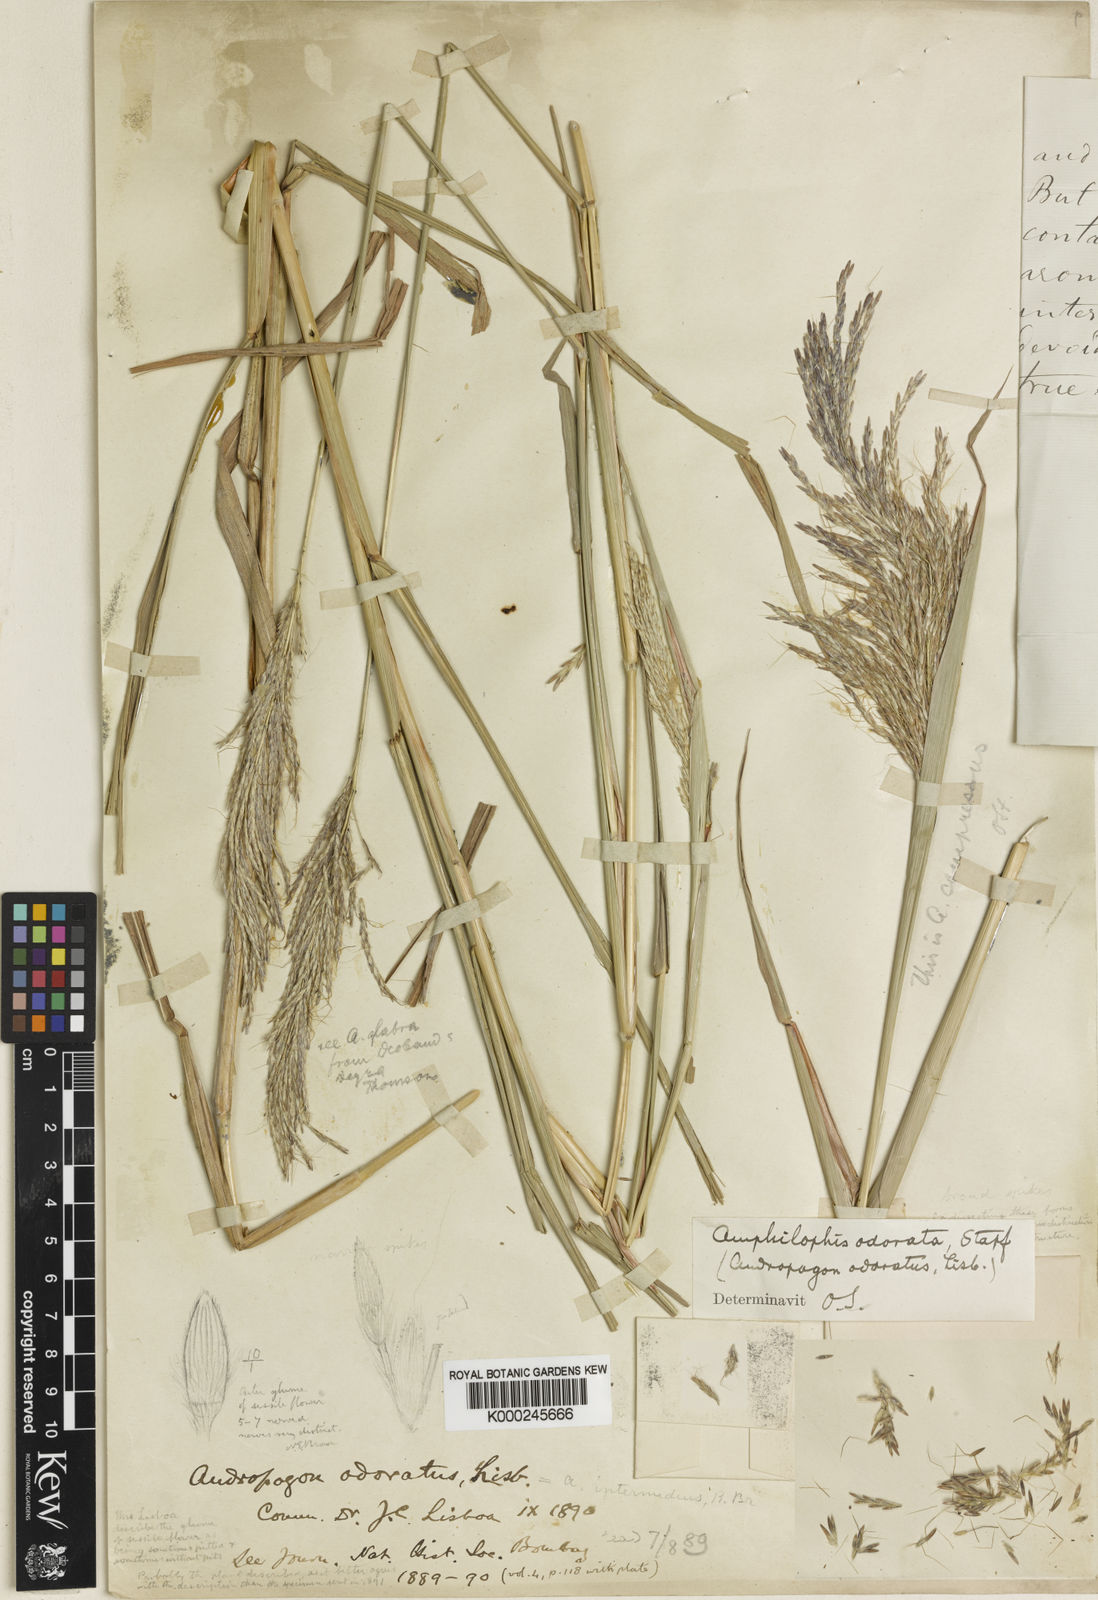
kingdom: Plantae
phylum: Tracheophyta
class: Liliopsida
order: Poales
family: Poaceae
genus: Bothriochloa
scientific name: Bothriochloa bladhii
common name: Caucasian bluestem
